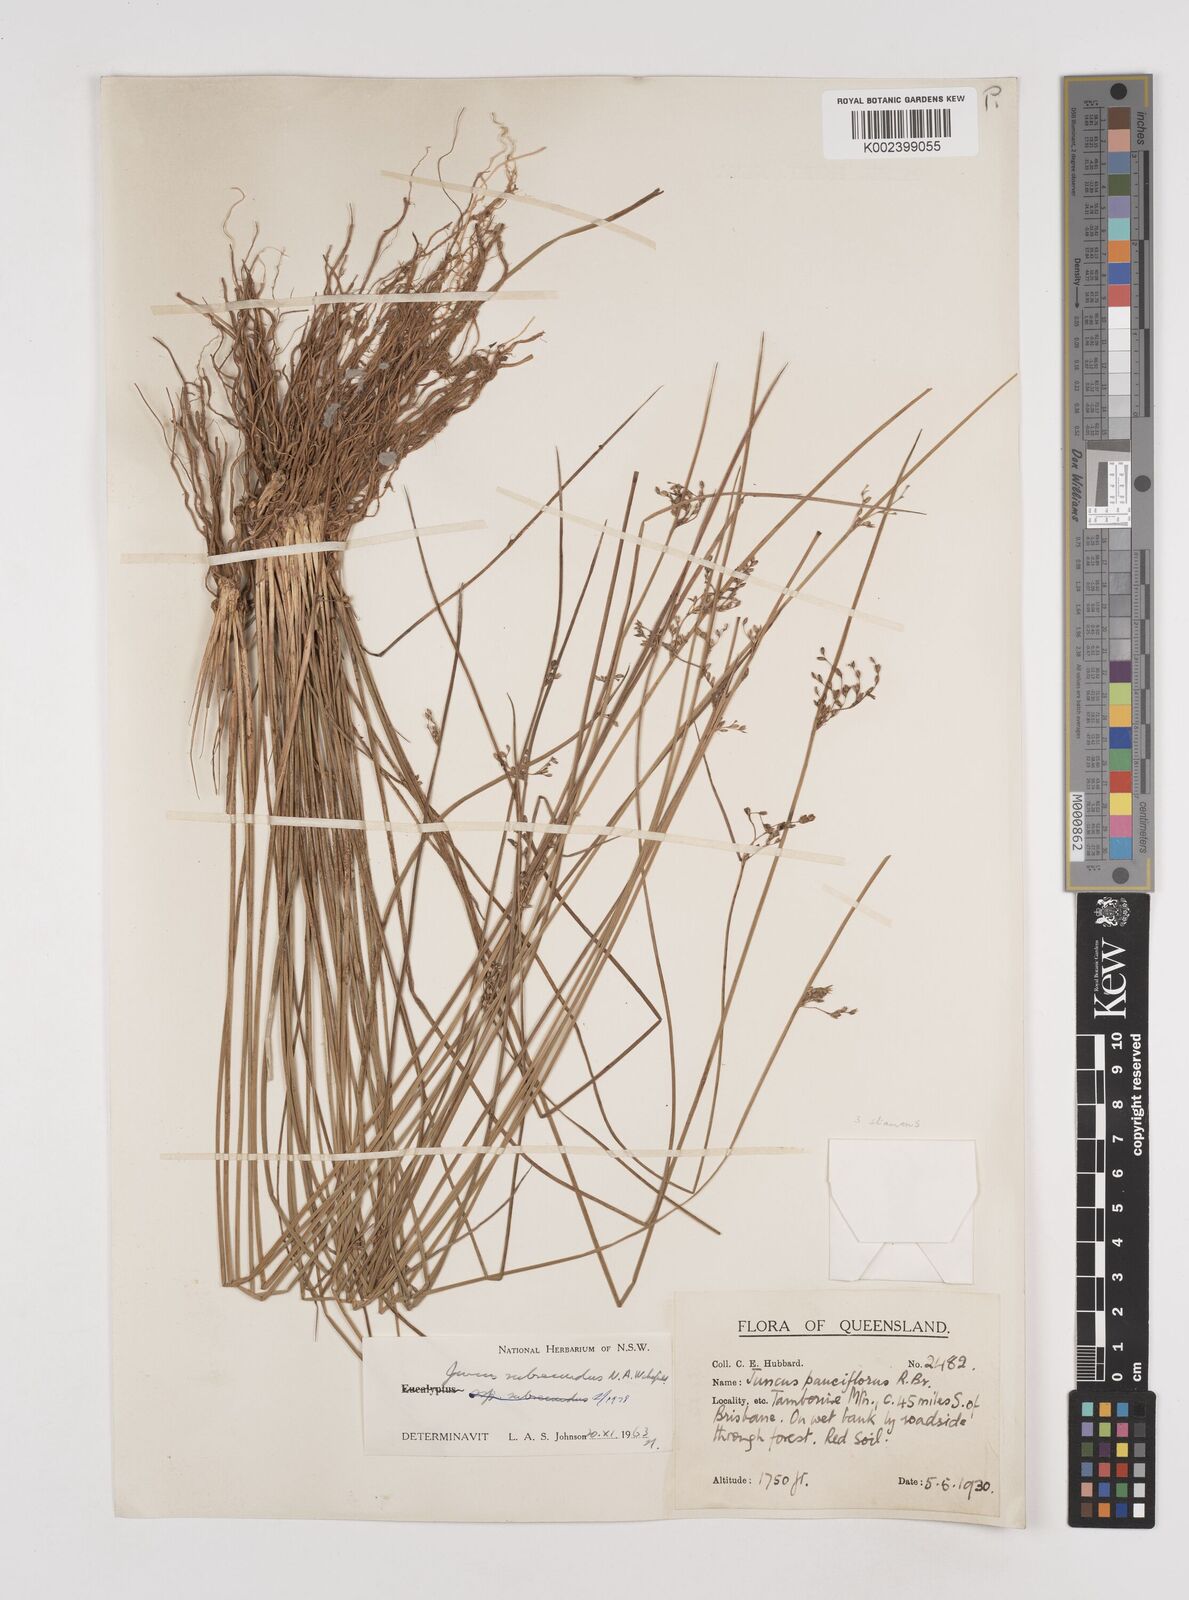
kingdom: Plantae
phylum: Tracheophyta
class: Liliopsida
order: Poales
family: Juncaceae
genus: Juncus
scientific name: Juncus subsecundus
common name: Fingered rush
